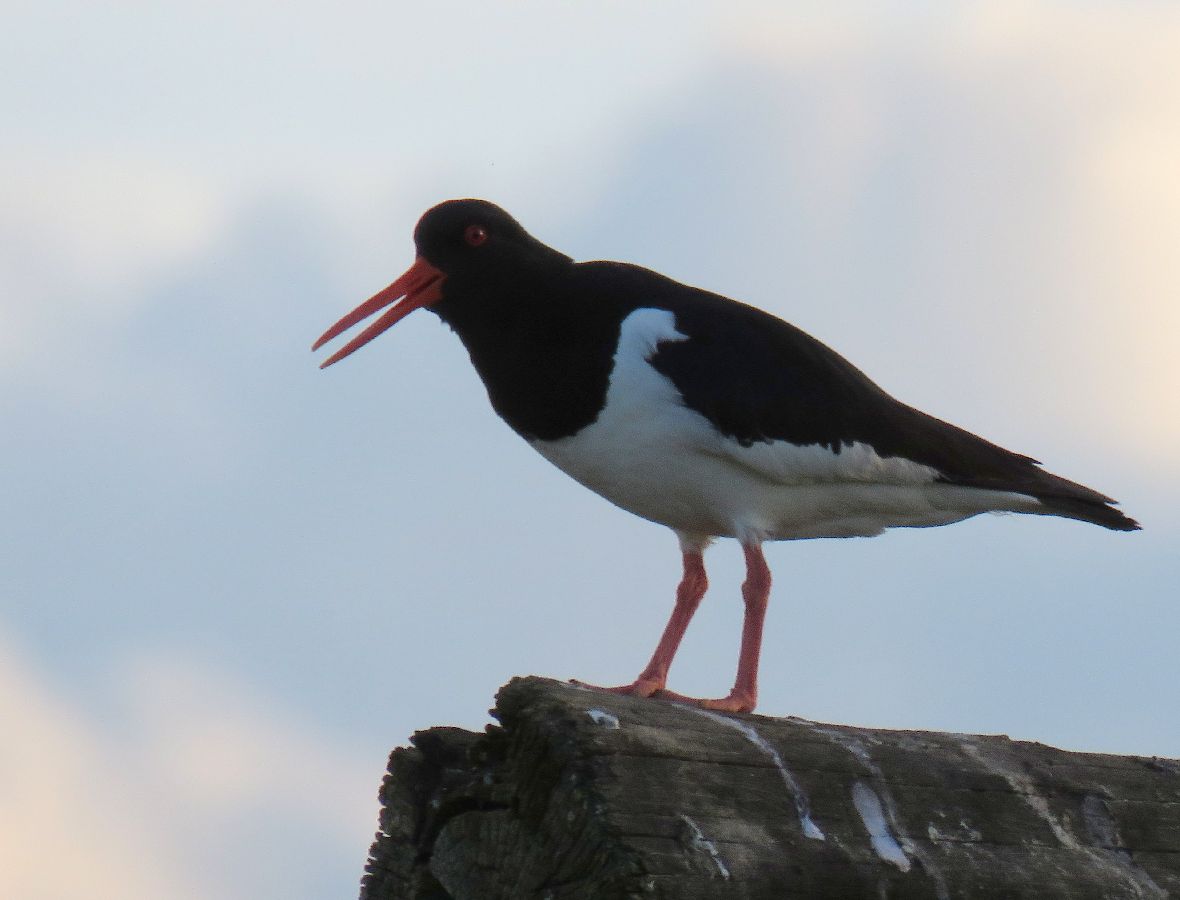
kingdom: Animalia
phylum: Chordata
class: Aves
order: Charadriiformes
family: Haematopodidae
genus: Haematopus
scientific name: Haematopus ostralegus
